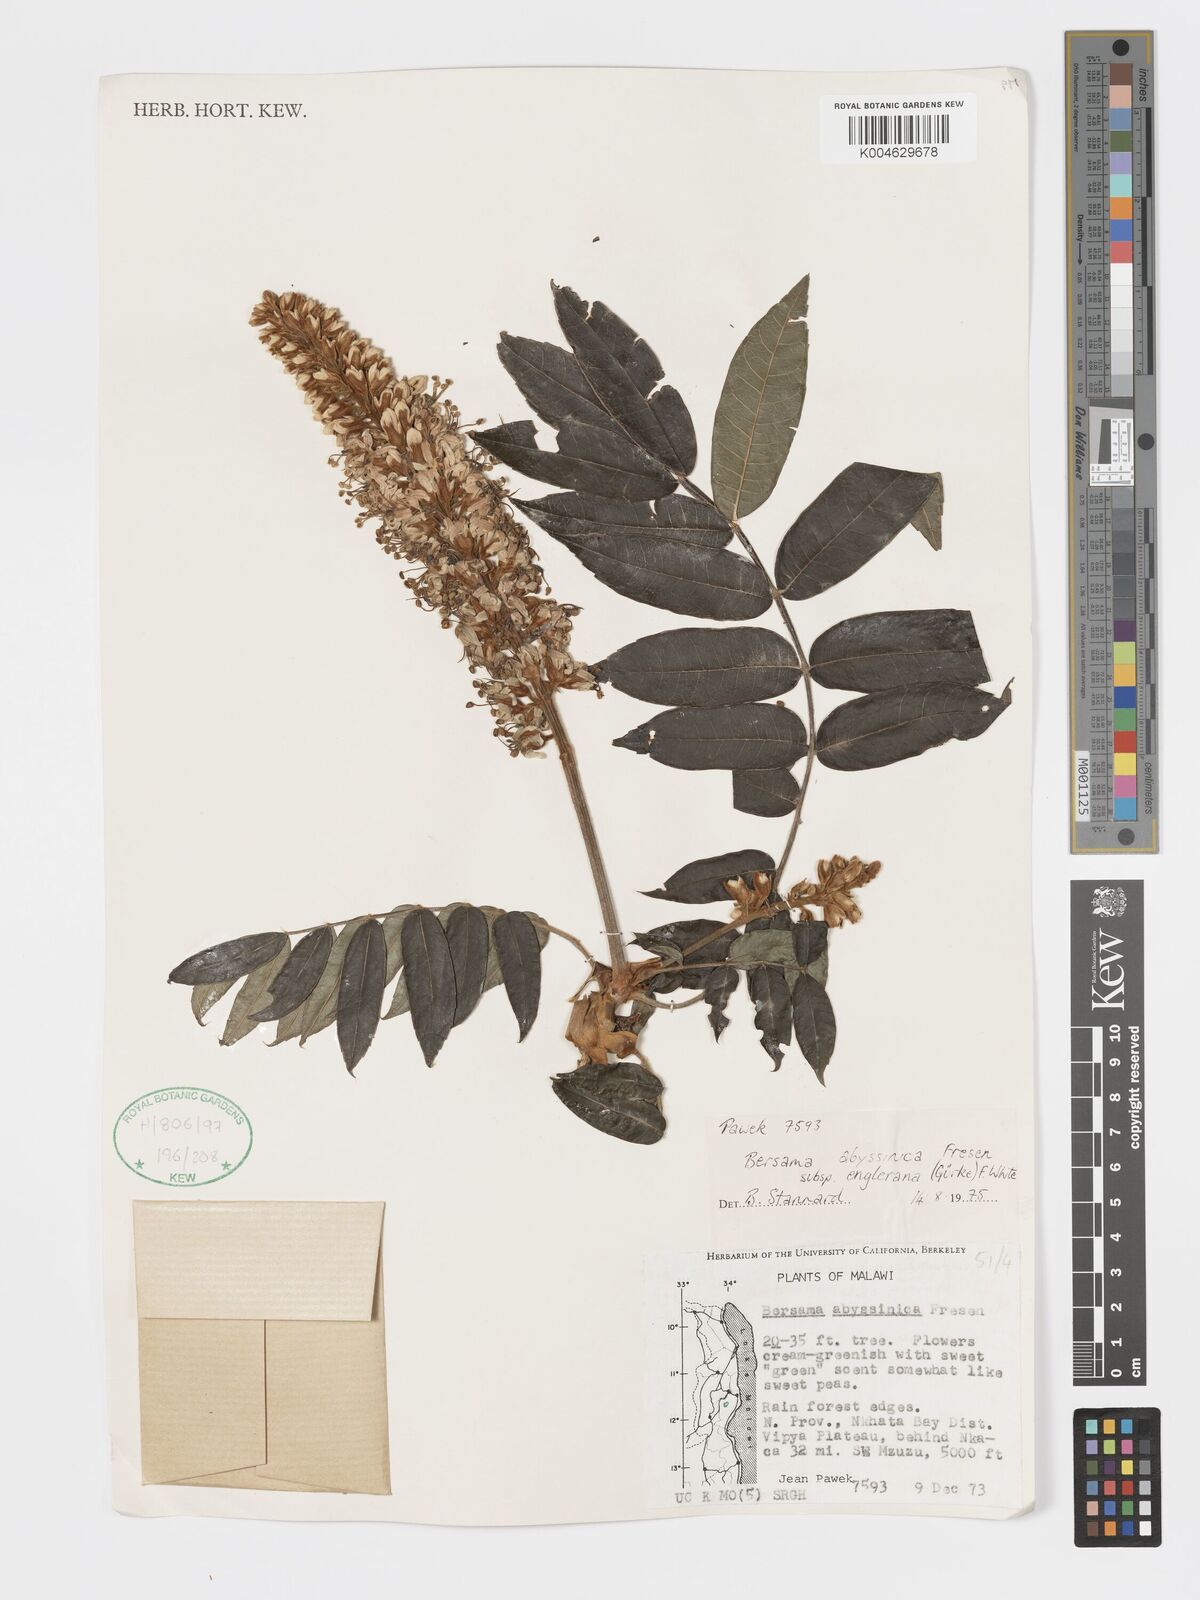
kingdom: Plantae
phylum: Tracheophyta
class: Magnoliopsida
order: Geraniales
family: Melianthaceae
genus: Bersama
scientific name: Bersama abyssinica
